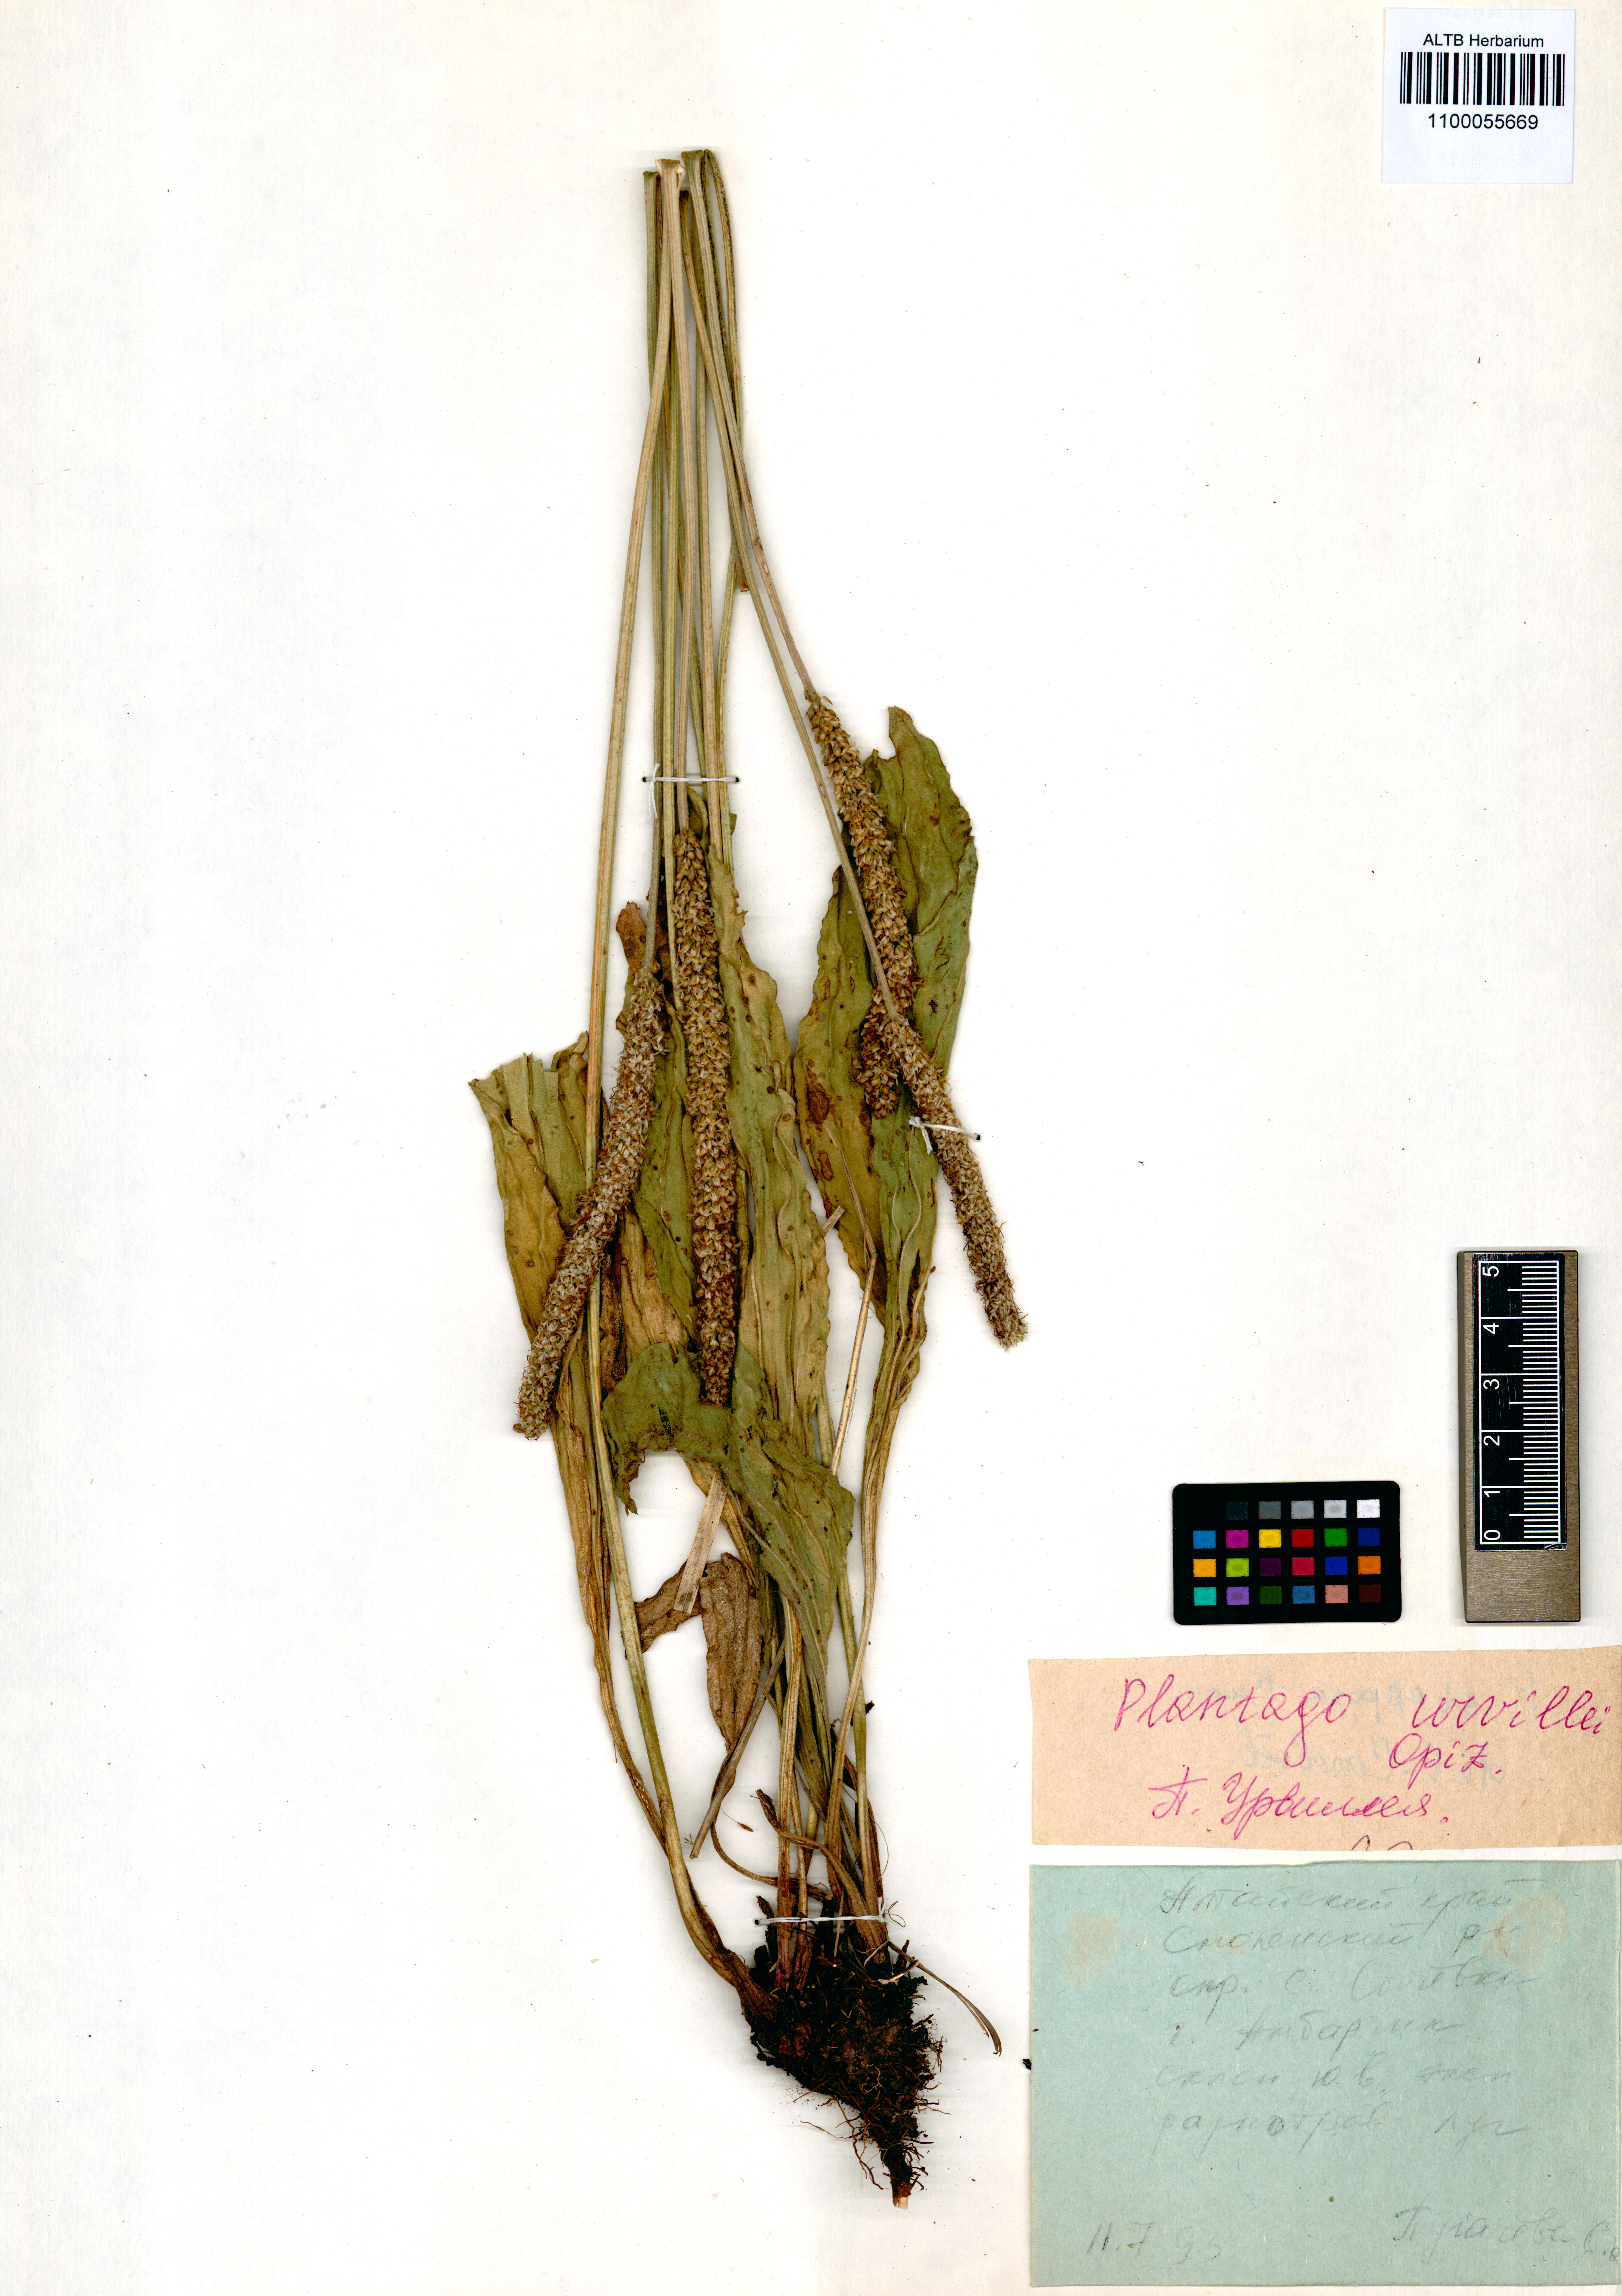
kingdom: Plantae
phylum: Tracheophyta
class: Magnoliopsida
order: Lamiales
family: Plantaginaceae
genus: Plantago
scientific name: Plantago urvillei
